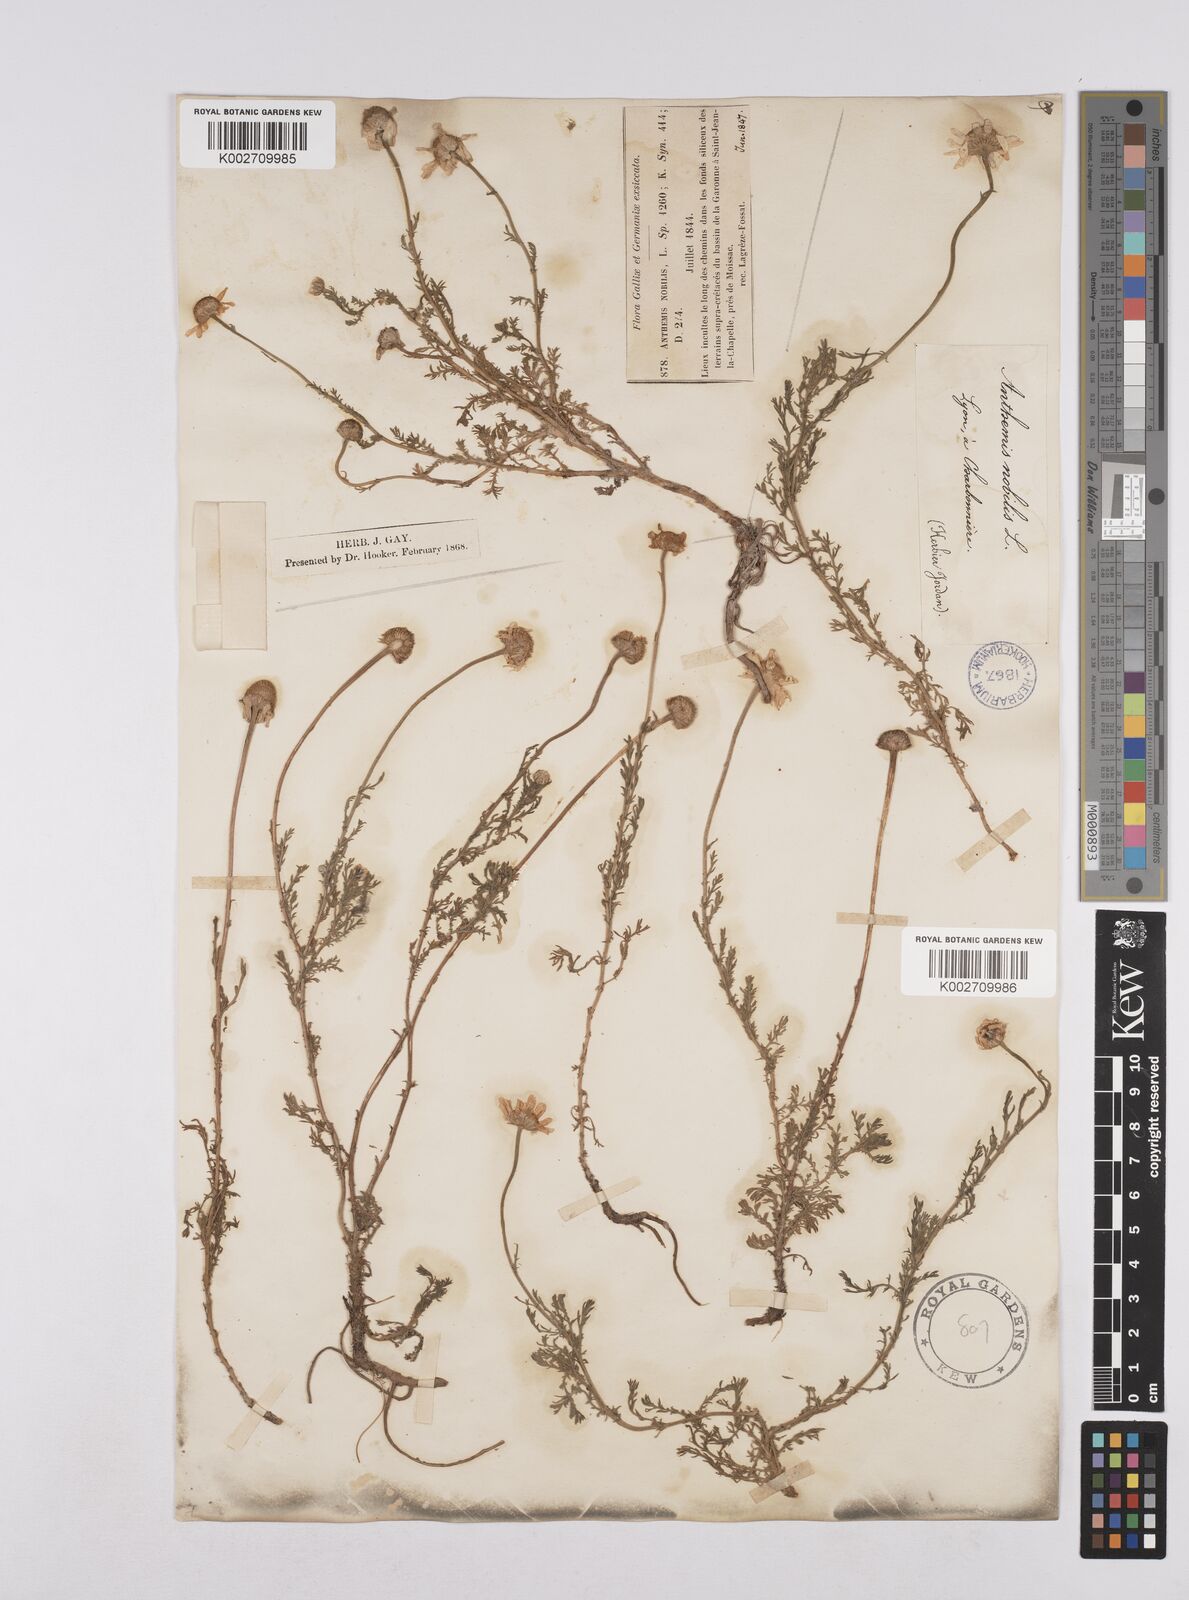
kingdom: Plantae
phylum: Tracheophyta
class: Magnoliopsida
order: Asterales
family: Asteraceae
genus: Chamaemelum
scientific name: Chamaemelum nobile
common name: Roman chamomile
